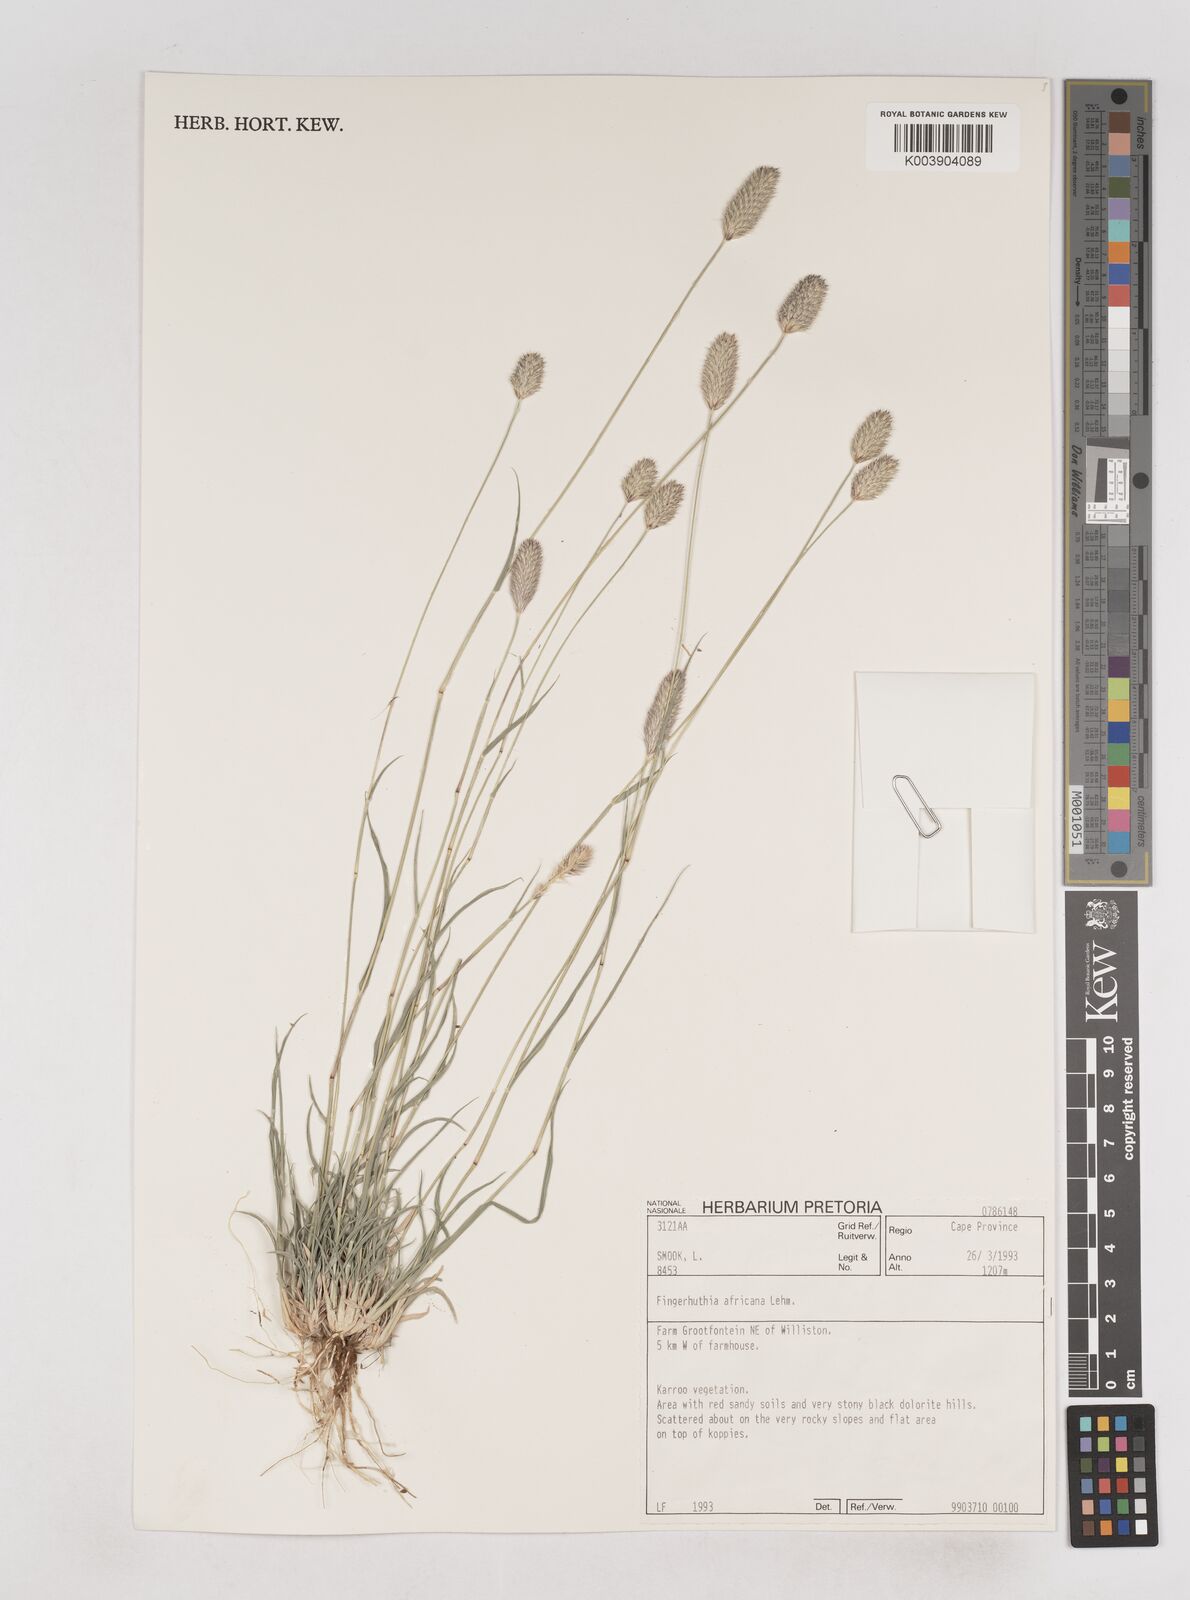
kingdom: Plantae
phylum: Tracheophyta
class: Liliopsida
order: Poales
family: Poaceae
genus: Fingerhuthia
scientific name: Fingerhuthia africana
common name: Zulu fescue
